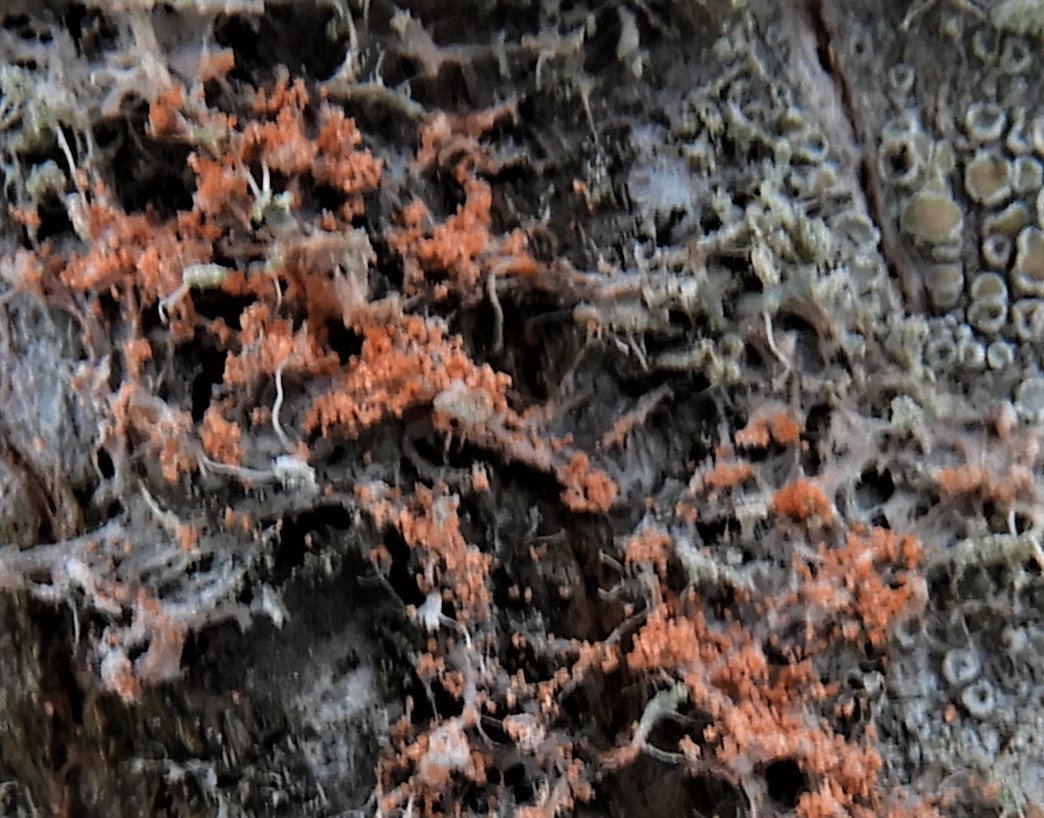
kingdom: Fungi
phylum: Basidiomycota
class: Agaricomycetes
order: Corticiales
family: Corticiaceae
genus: Erythricium
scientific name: Erythricium aurantiacum
